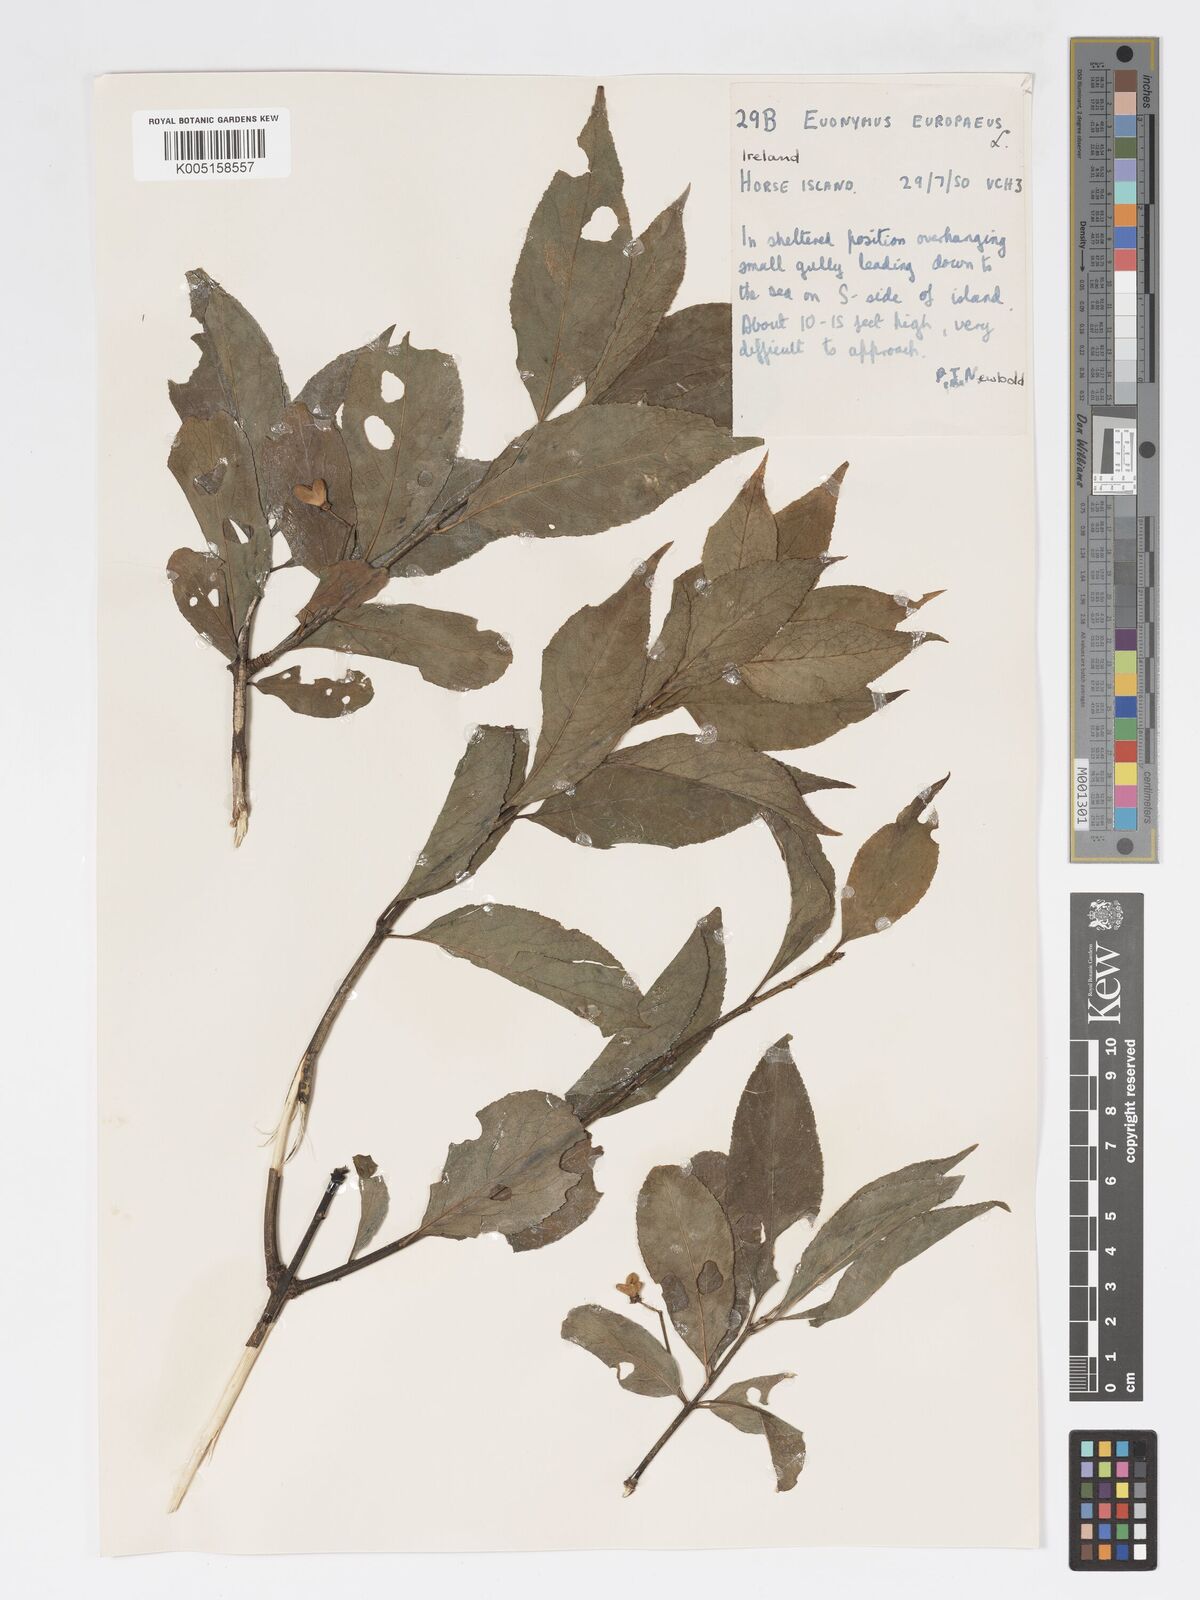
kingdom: Plantae
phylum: Tracheophyta
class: Magnoliopsida
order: Celastrales
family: Celastraceae
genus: Euonymus
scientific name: Euonymus europaeus
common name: Spindle
